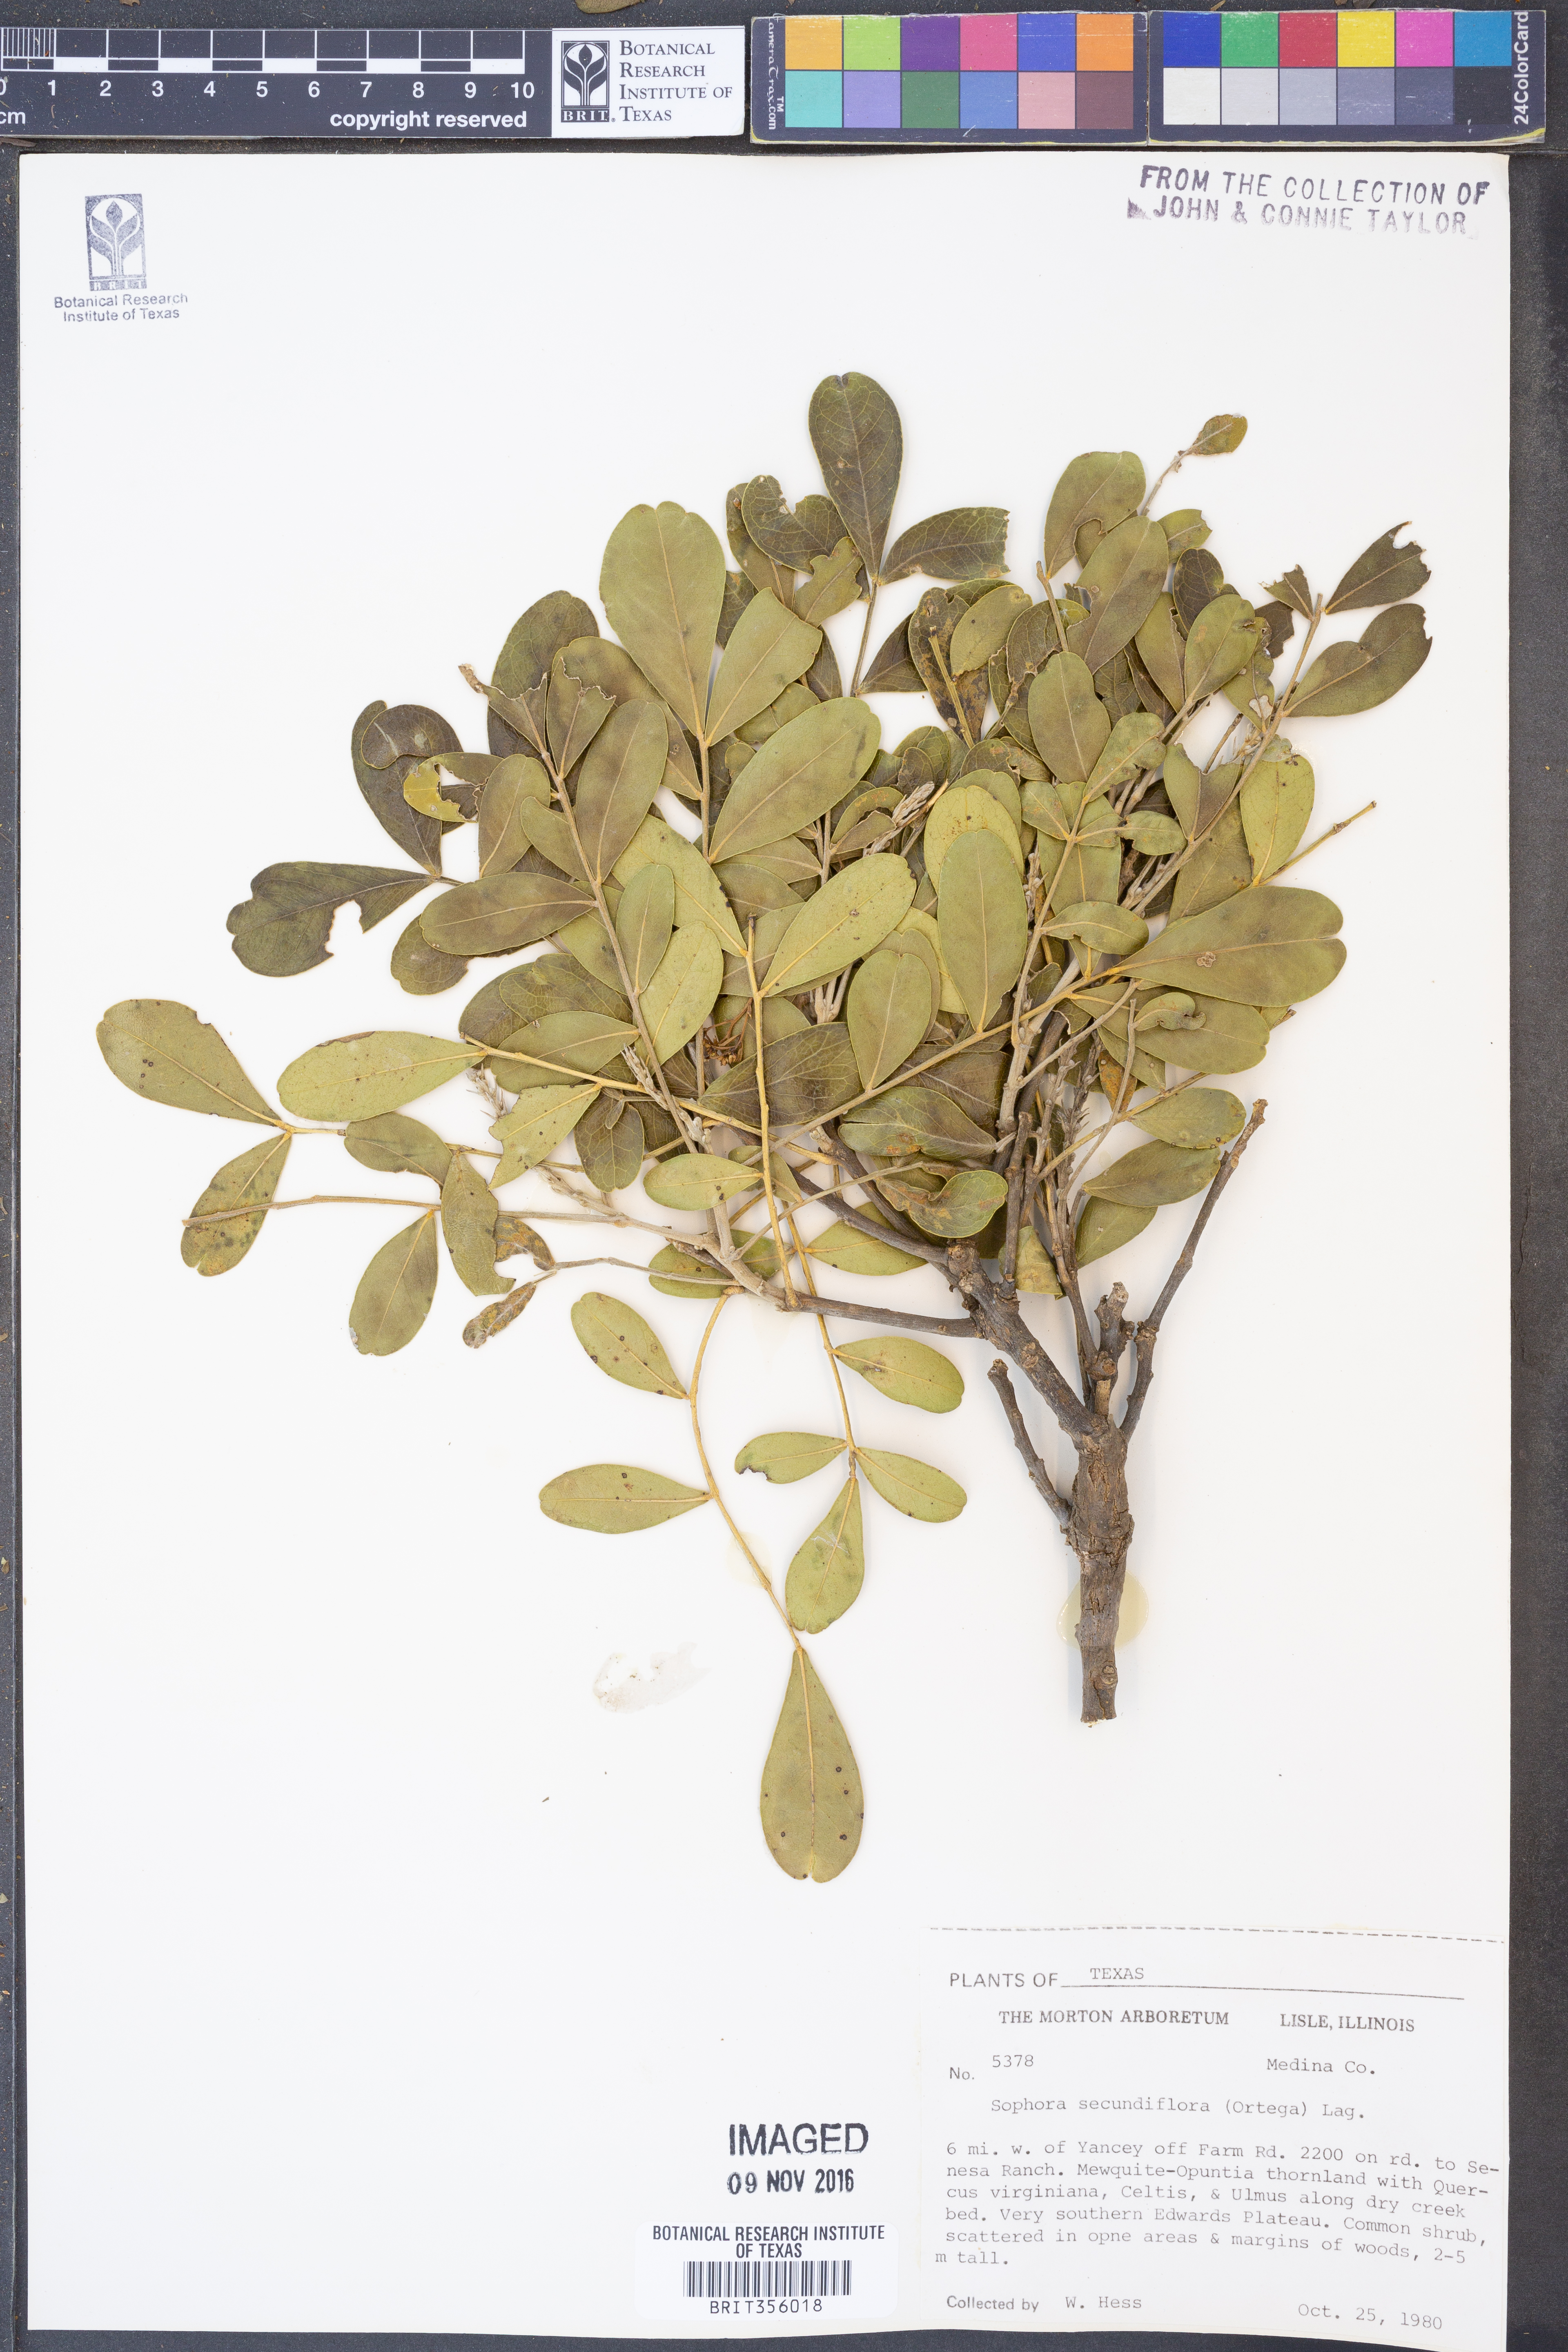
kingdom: Plantae
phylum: Tracheophyta
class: Magnoliopsida
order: Fabales
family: Fabaceae
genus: Dermatophyllum
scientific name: Dermatophyllum secundiflorum
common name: Texas-mountain-laurel
